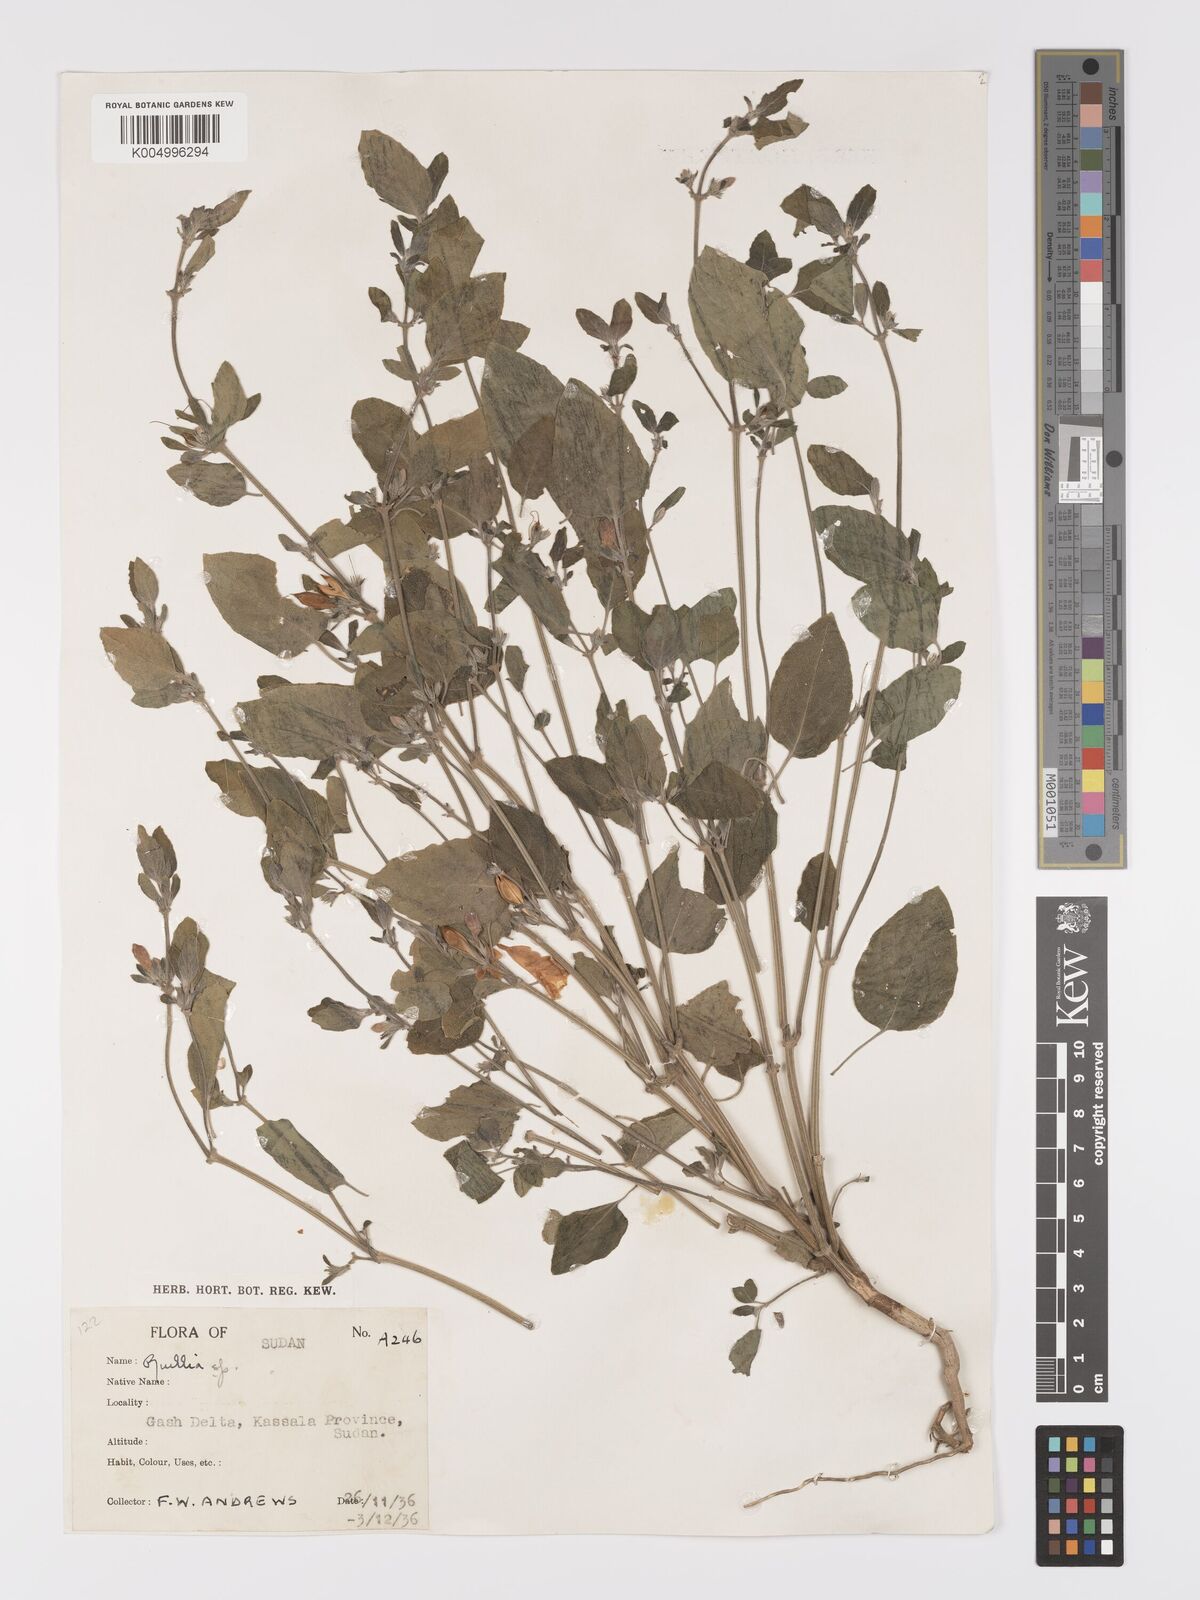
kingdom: Plantae
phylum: Tracheophyta
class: Magnoliopsida
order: Lamiales
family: Acanthaceae
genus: Ruellia
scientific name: Ruellia patula
